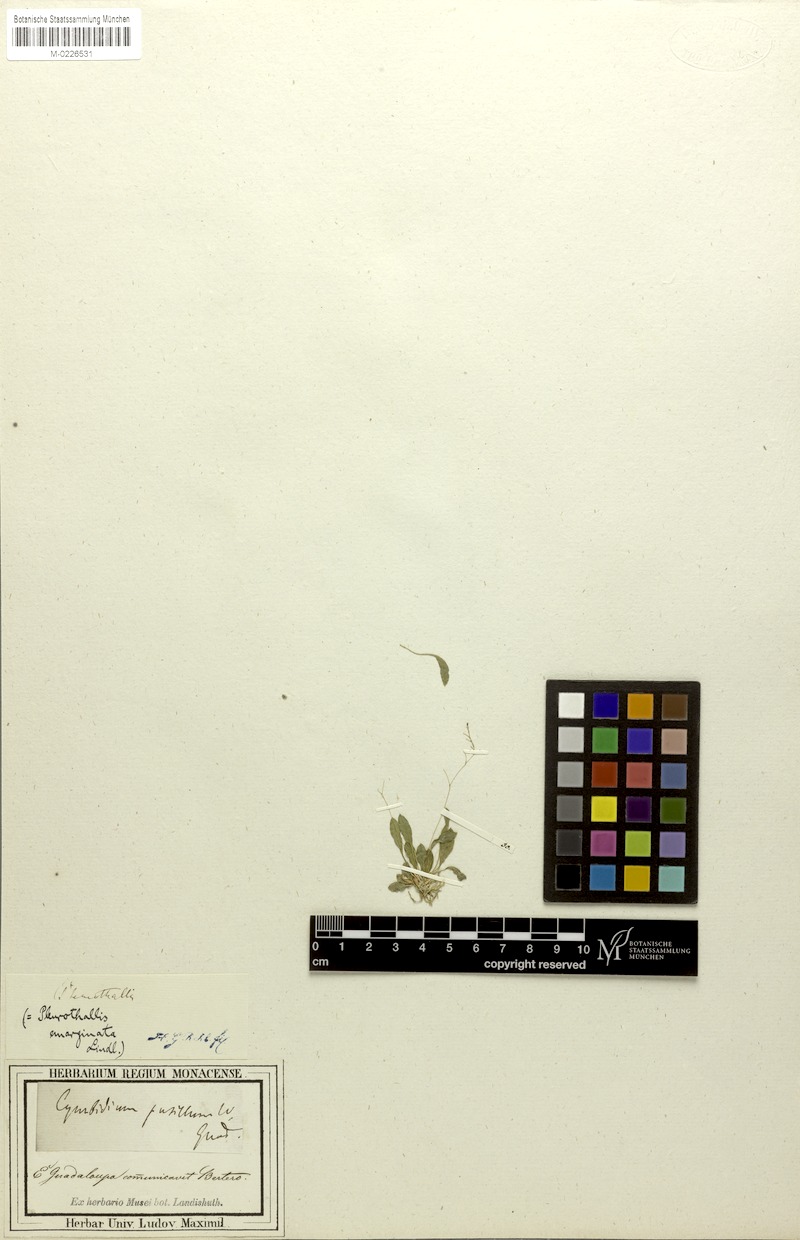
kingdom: Plantae
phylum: Tracheophyta
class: Liliopsida
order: Asparagales
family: Orchidaceae
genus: Stelis
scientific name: Stelis emarginata
